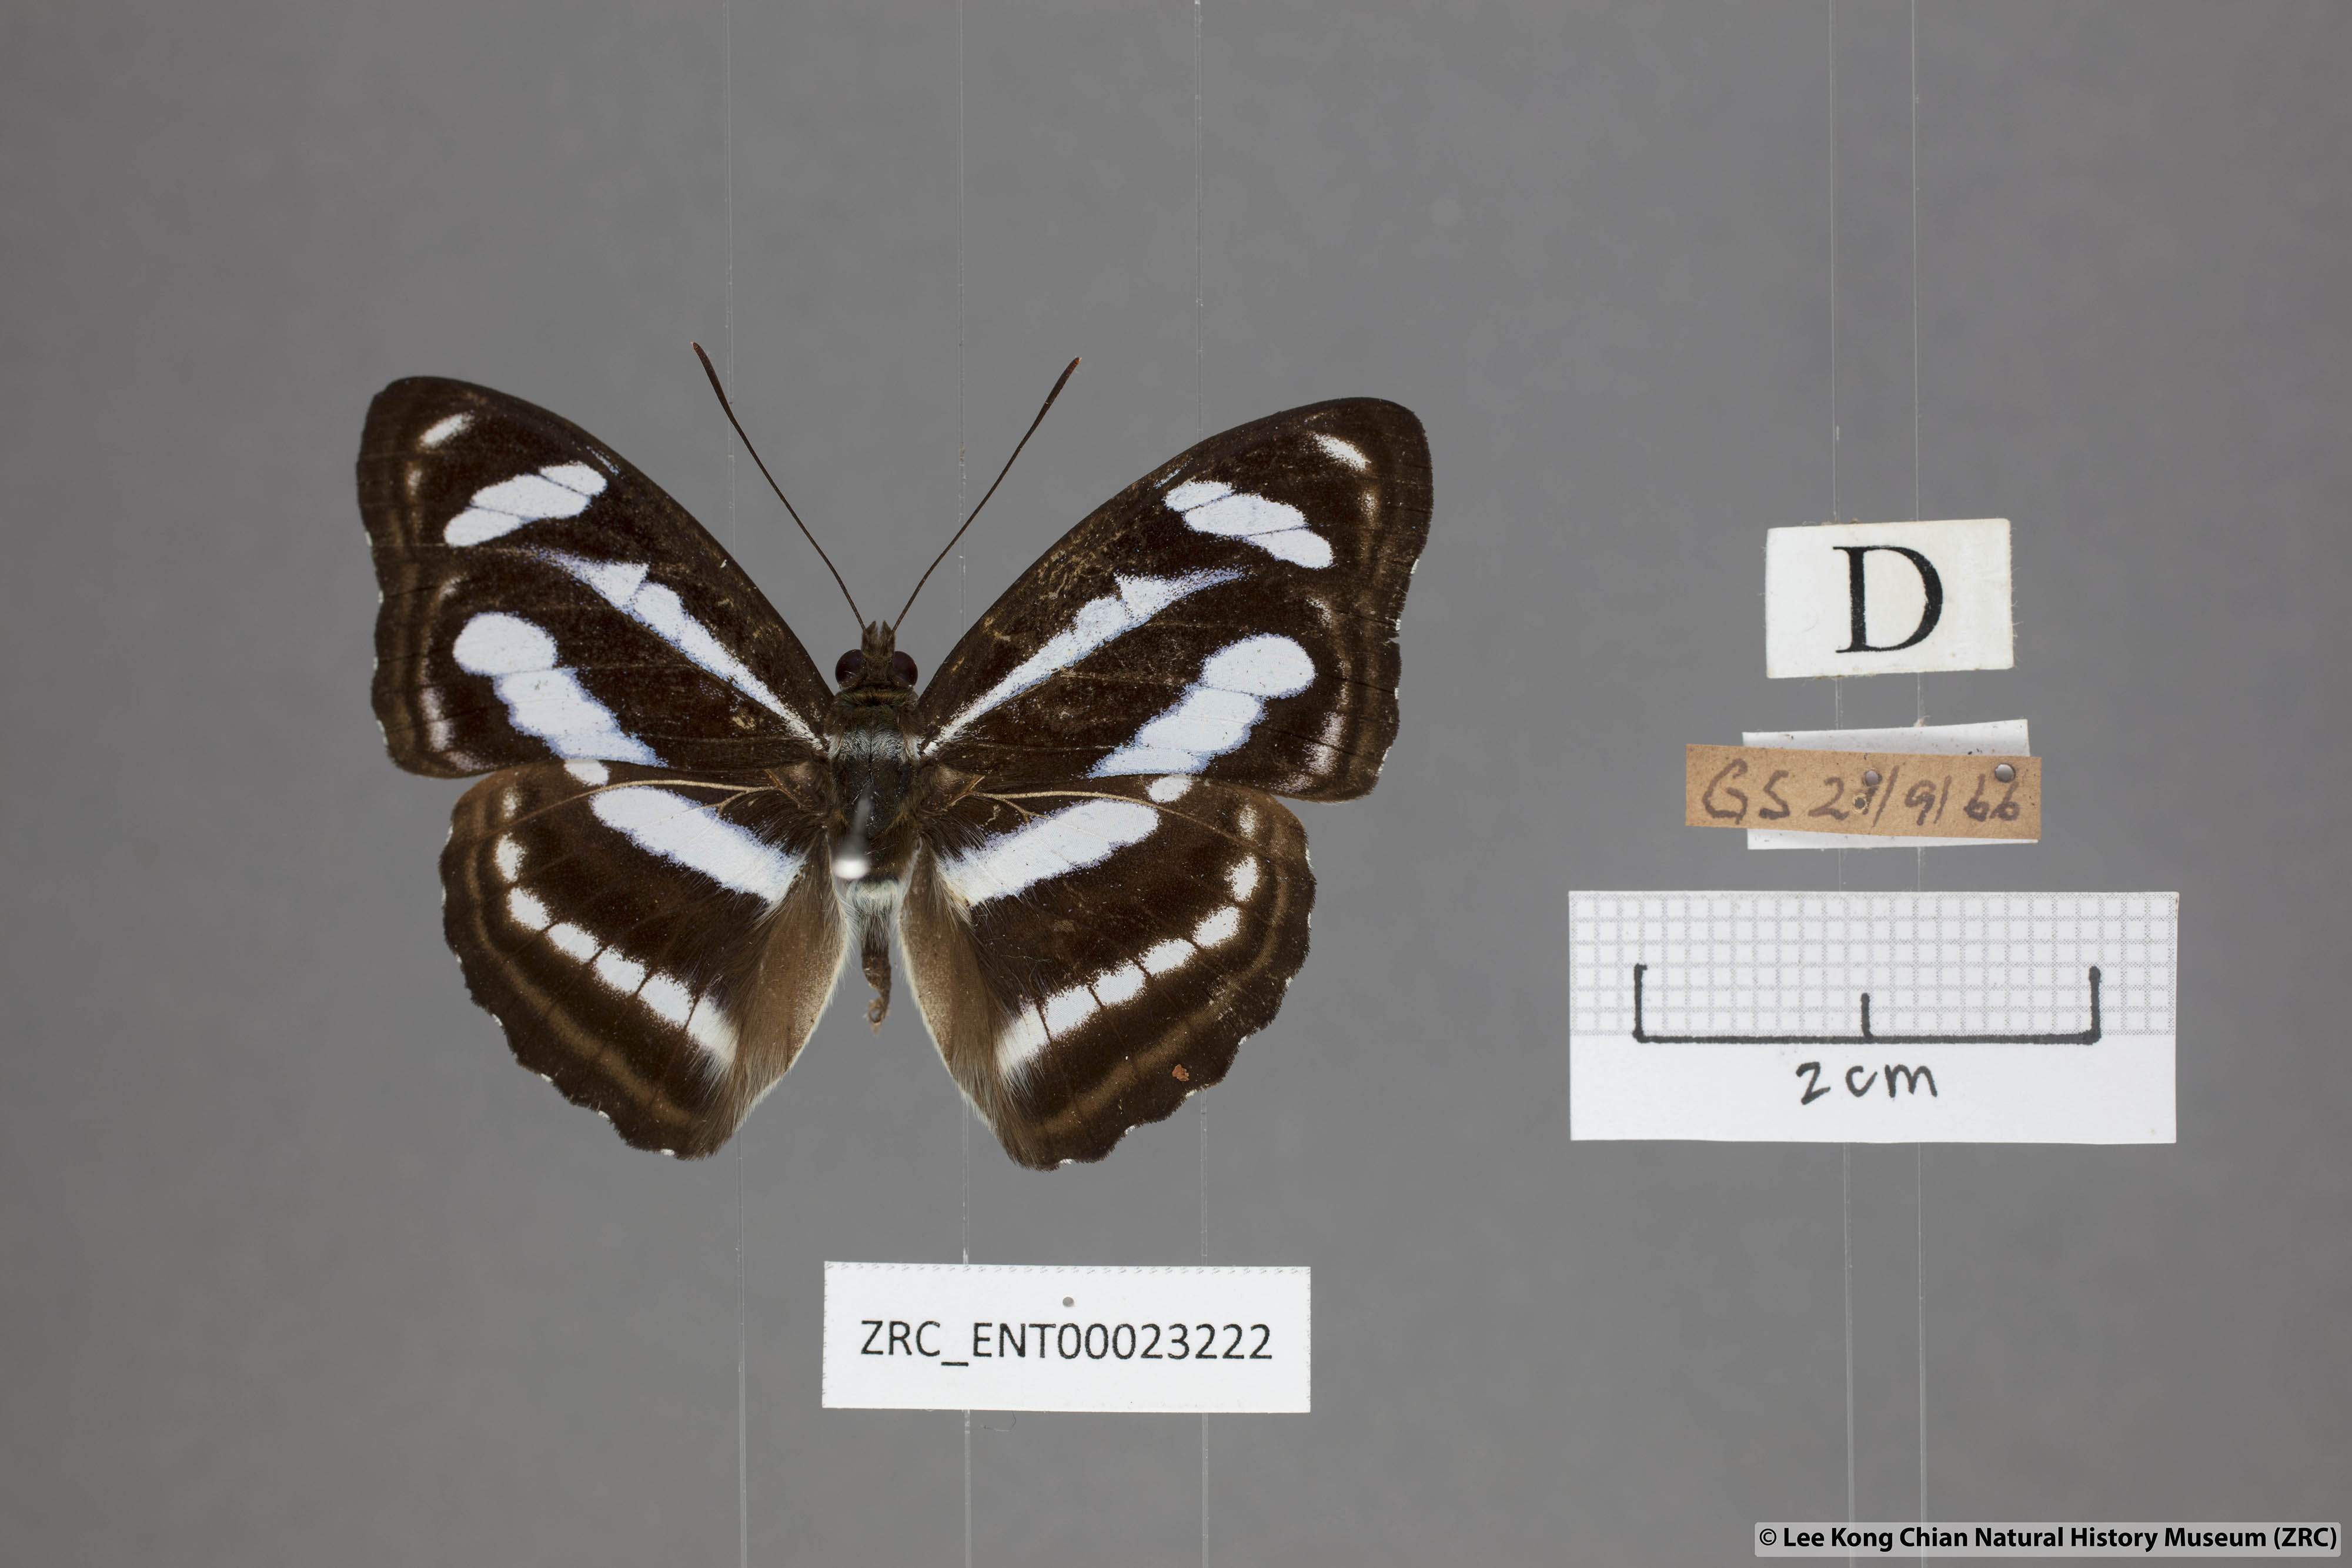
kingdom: Animalia
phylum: Arthropoda
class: Insecta
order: Lepidoptera
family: Nymphalidae
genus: Parathyma
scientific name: Parathyma nefte
